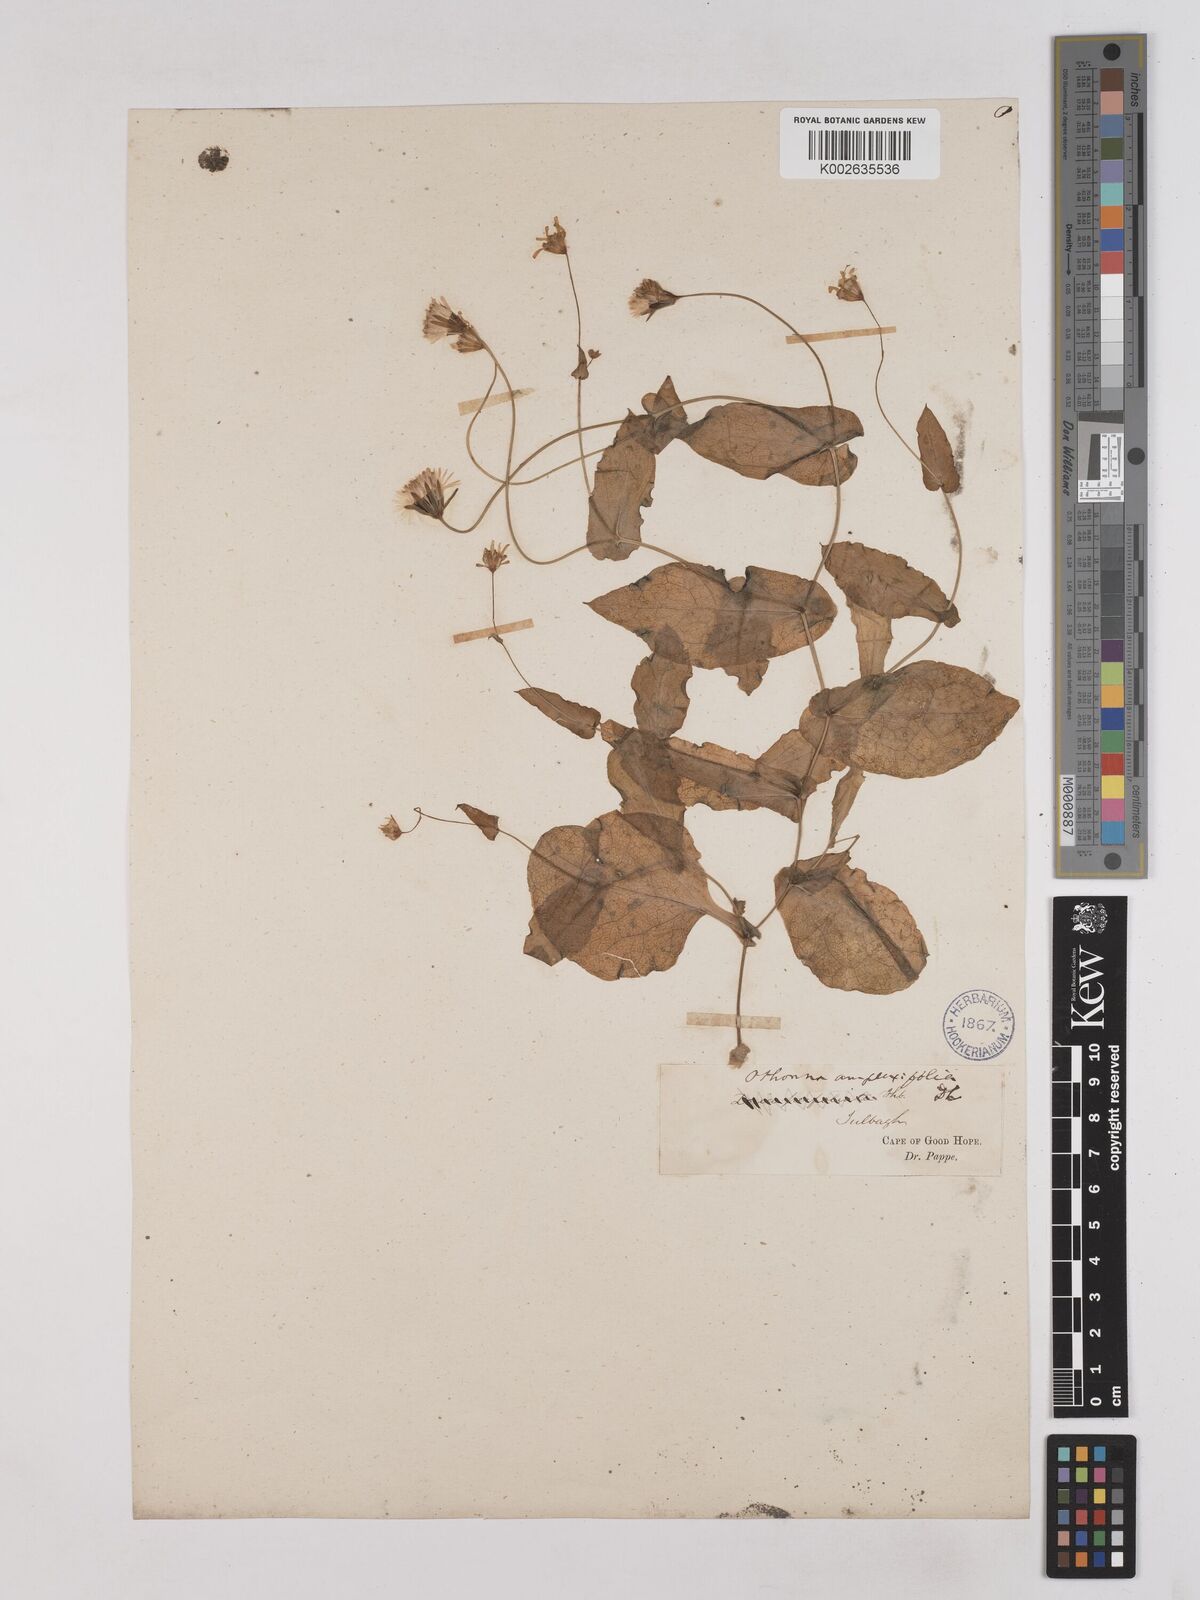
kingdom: Plantae
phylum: Tracheophyta
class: Magnoliopsida
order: Asterales
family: Asteraceae
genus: Othonna
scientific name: Othonna amplexifolia
